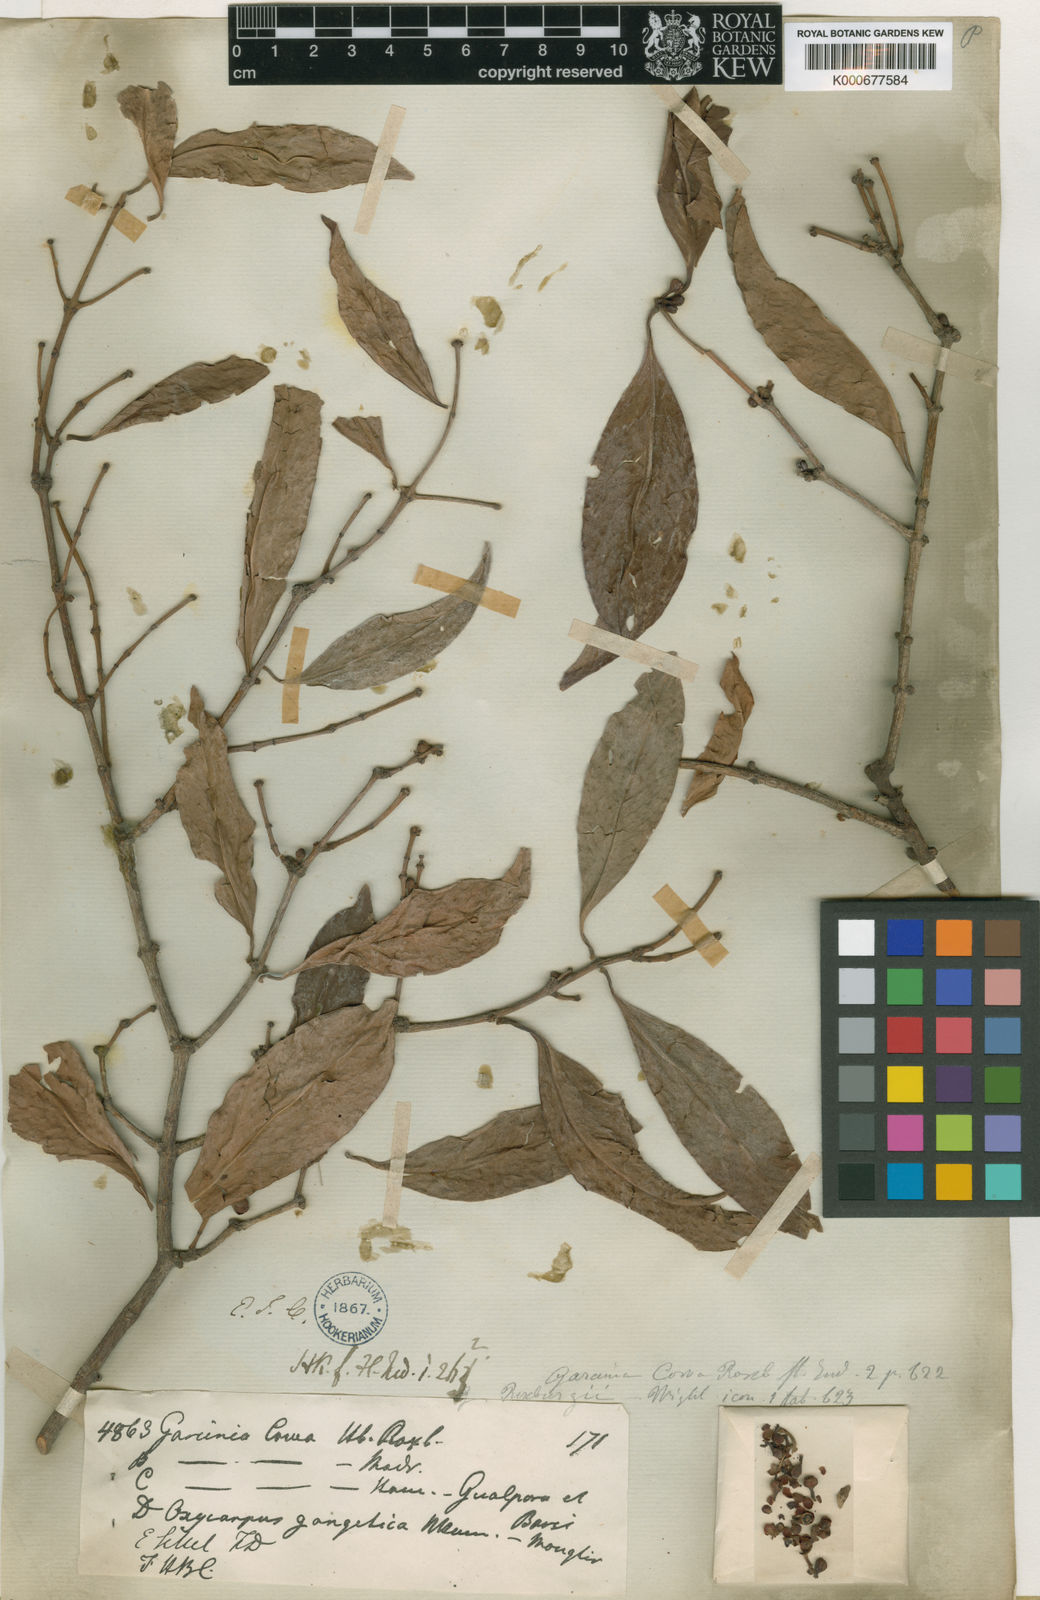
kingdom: Plantae
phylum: Tracheophyta
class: Magnoliopsida
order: Malpighiales
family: Clusiaceae
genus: Garcinia
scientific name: Garcinia
